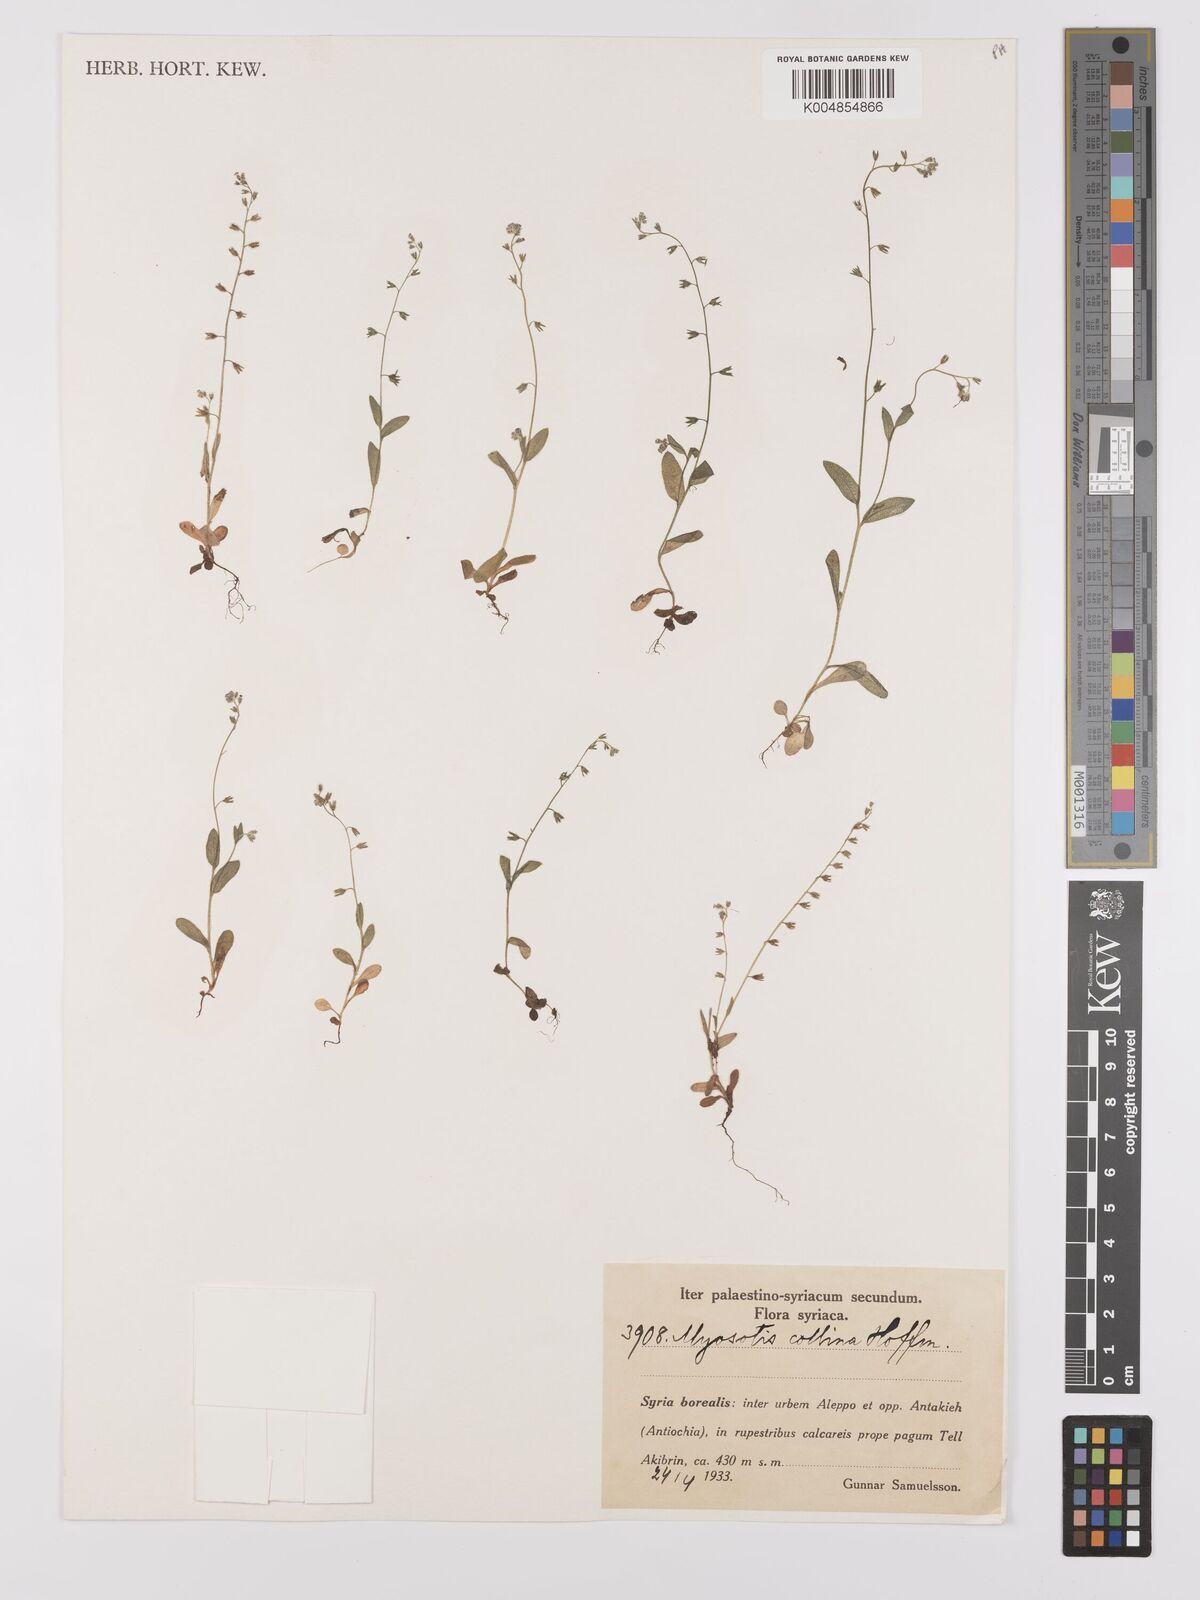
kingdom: Plantae
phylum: Tracheophyta
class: Magnoliopsida
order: Boraginales
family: Boraginaceae
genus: Myosotis
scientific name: Myosotis discolor
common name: Changing forget-me-not
